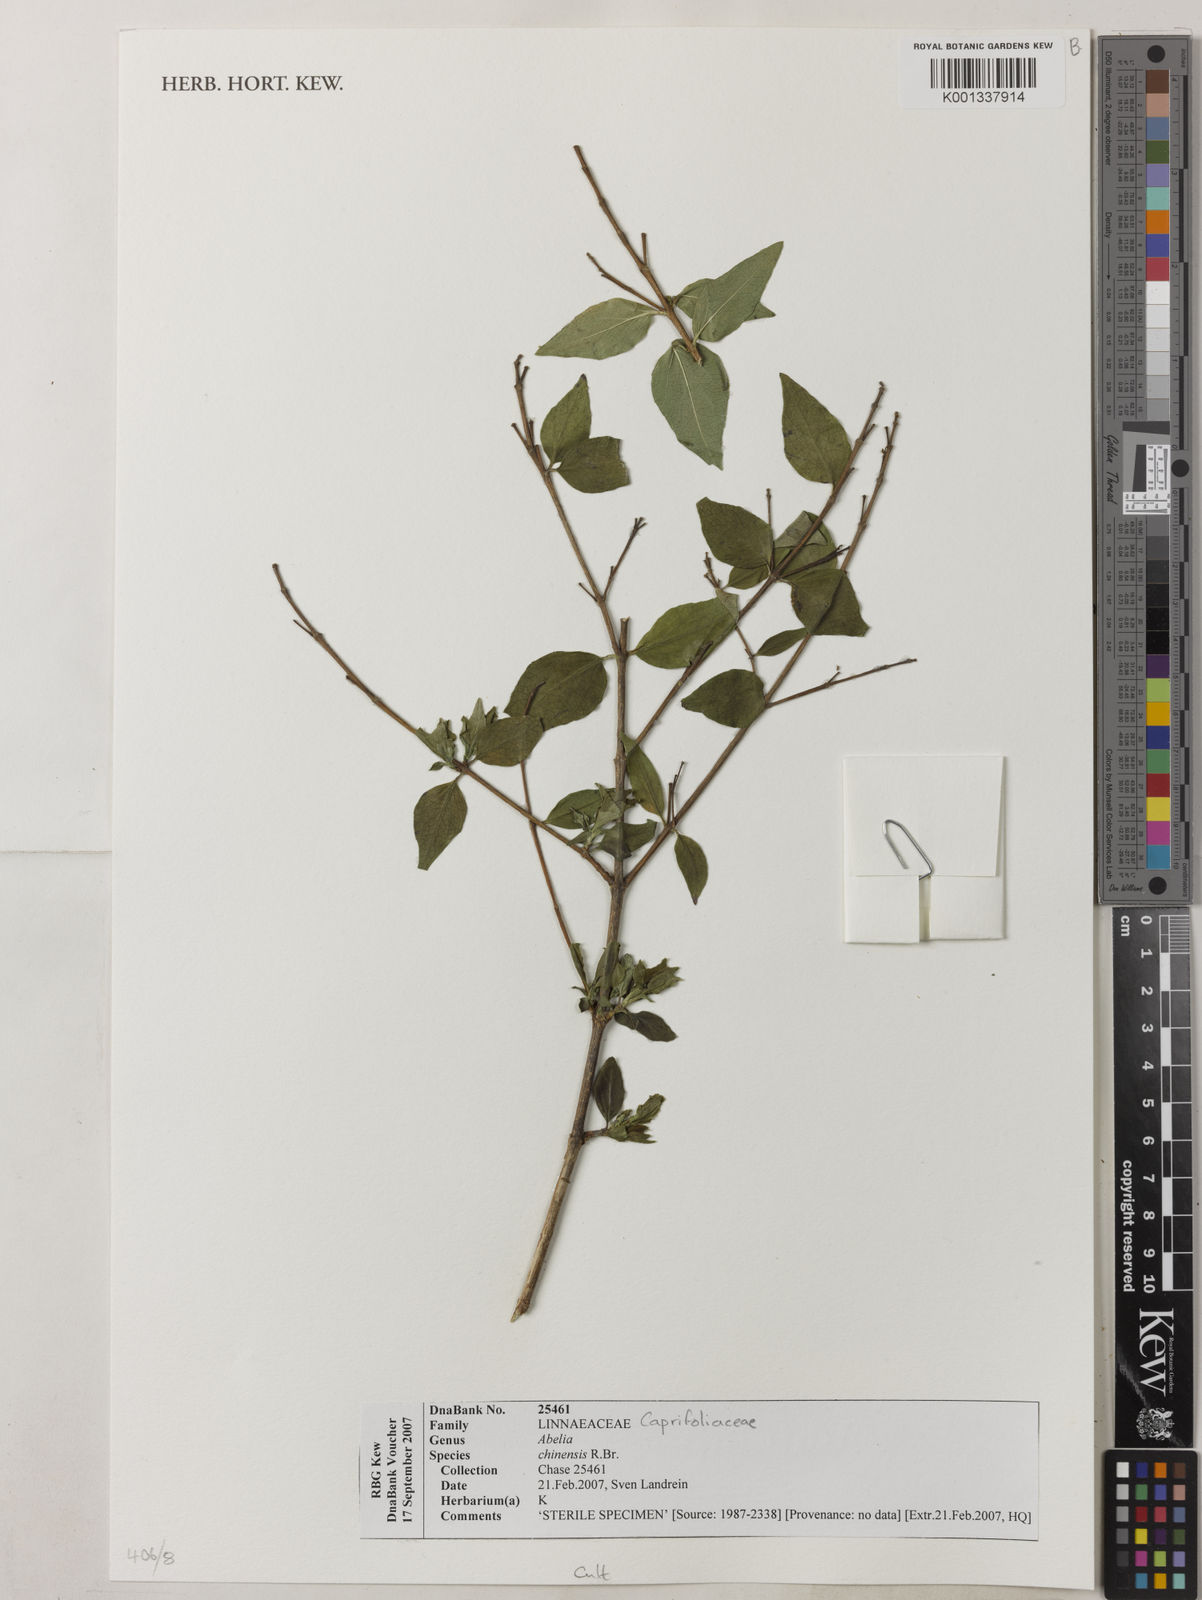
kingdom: Plantae
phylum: Tracheophyta
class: Magnoliopsida
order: Dipsacales
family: Caprifoliaceae
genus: Abelia
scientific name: Abelia chinensis
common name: Chinese abelia
